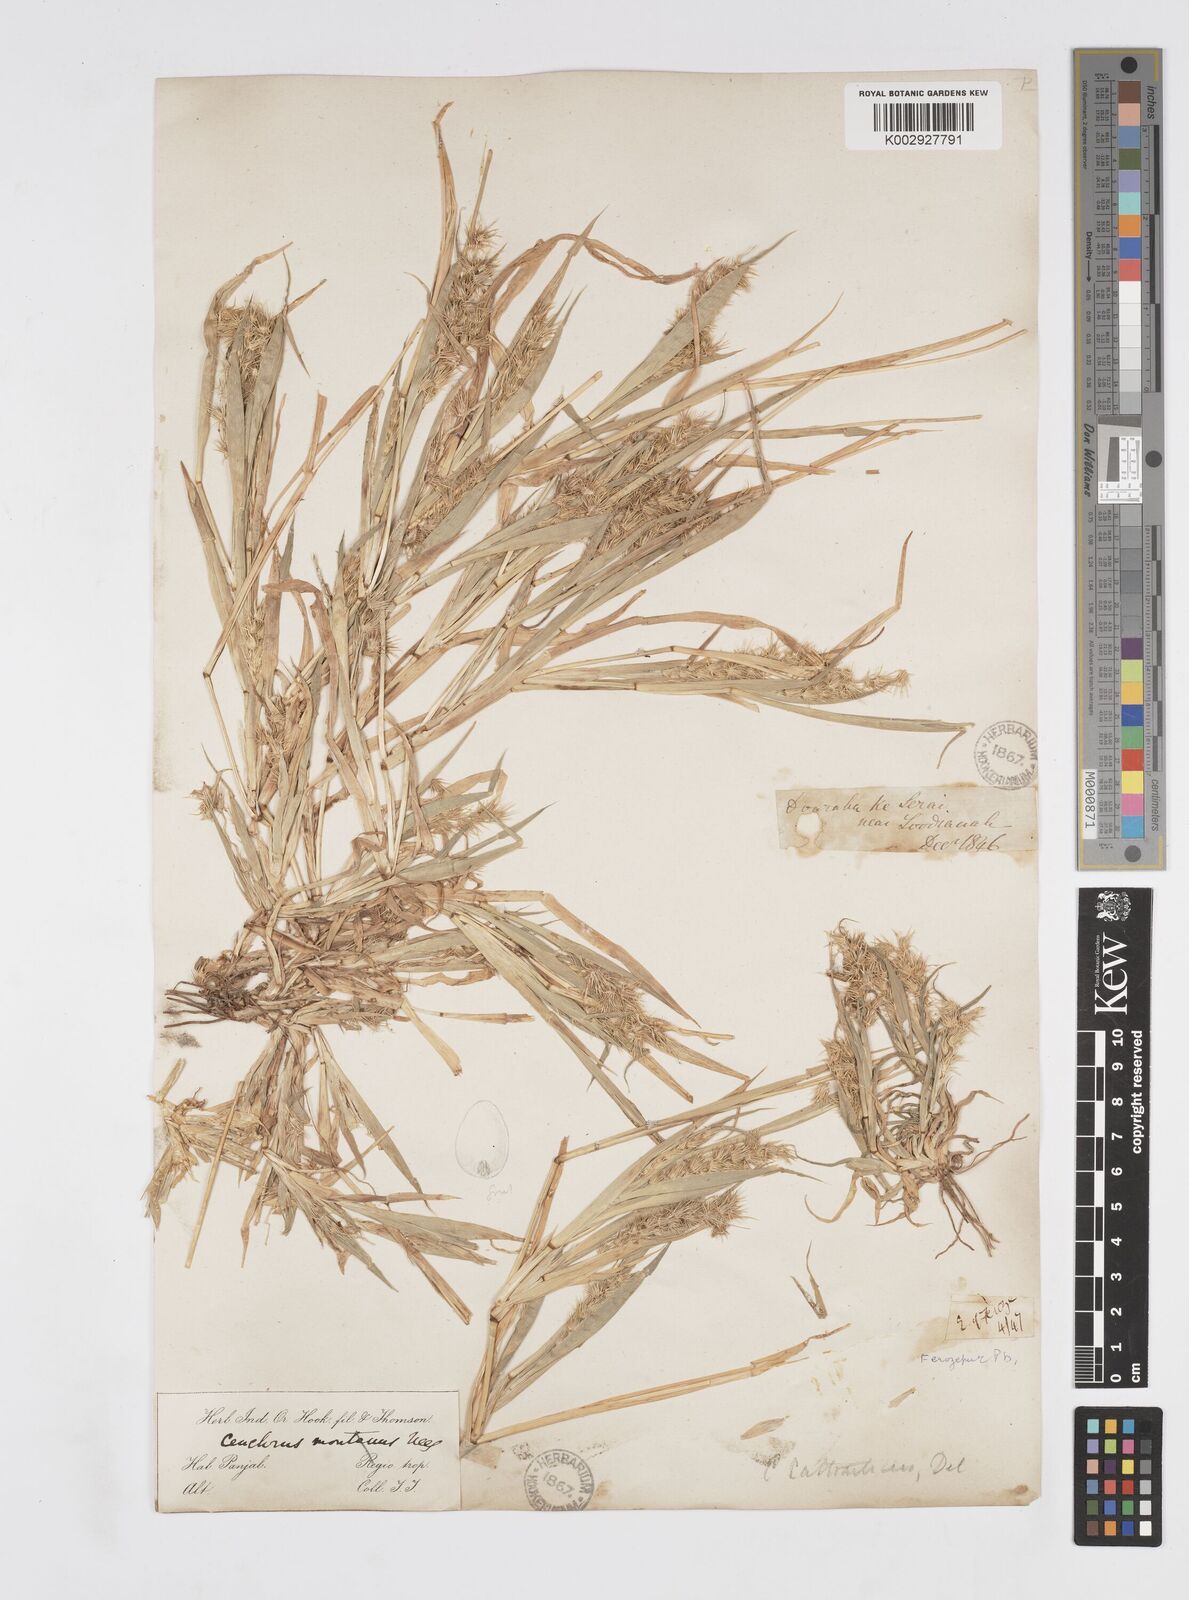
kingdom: Plantae
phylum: Tracheophyta
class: Liliopsida
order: Poales
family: Poaceae
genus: Cenchrus
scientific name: Cenchrus biflorus
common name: Indian sandbur
